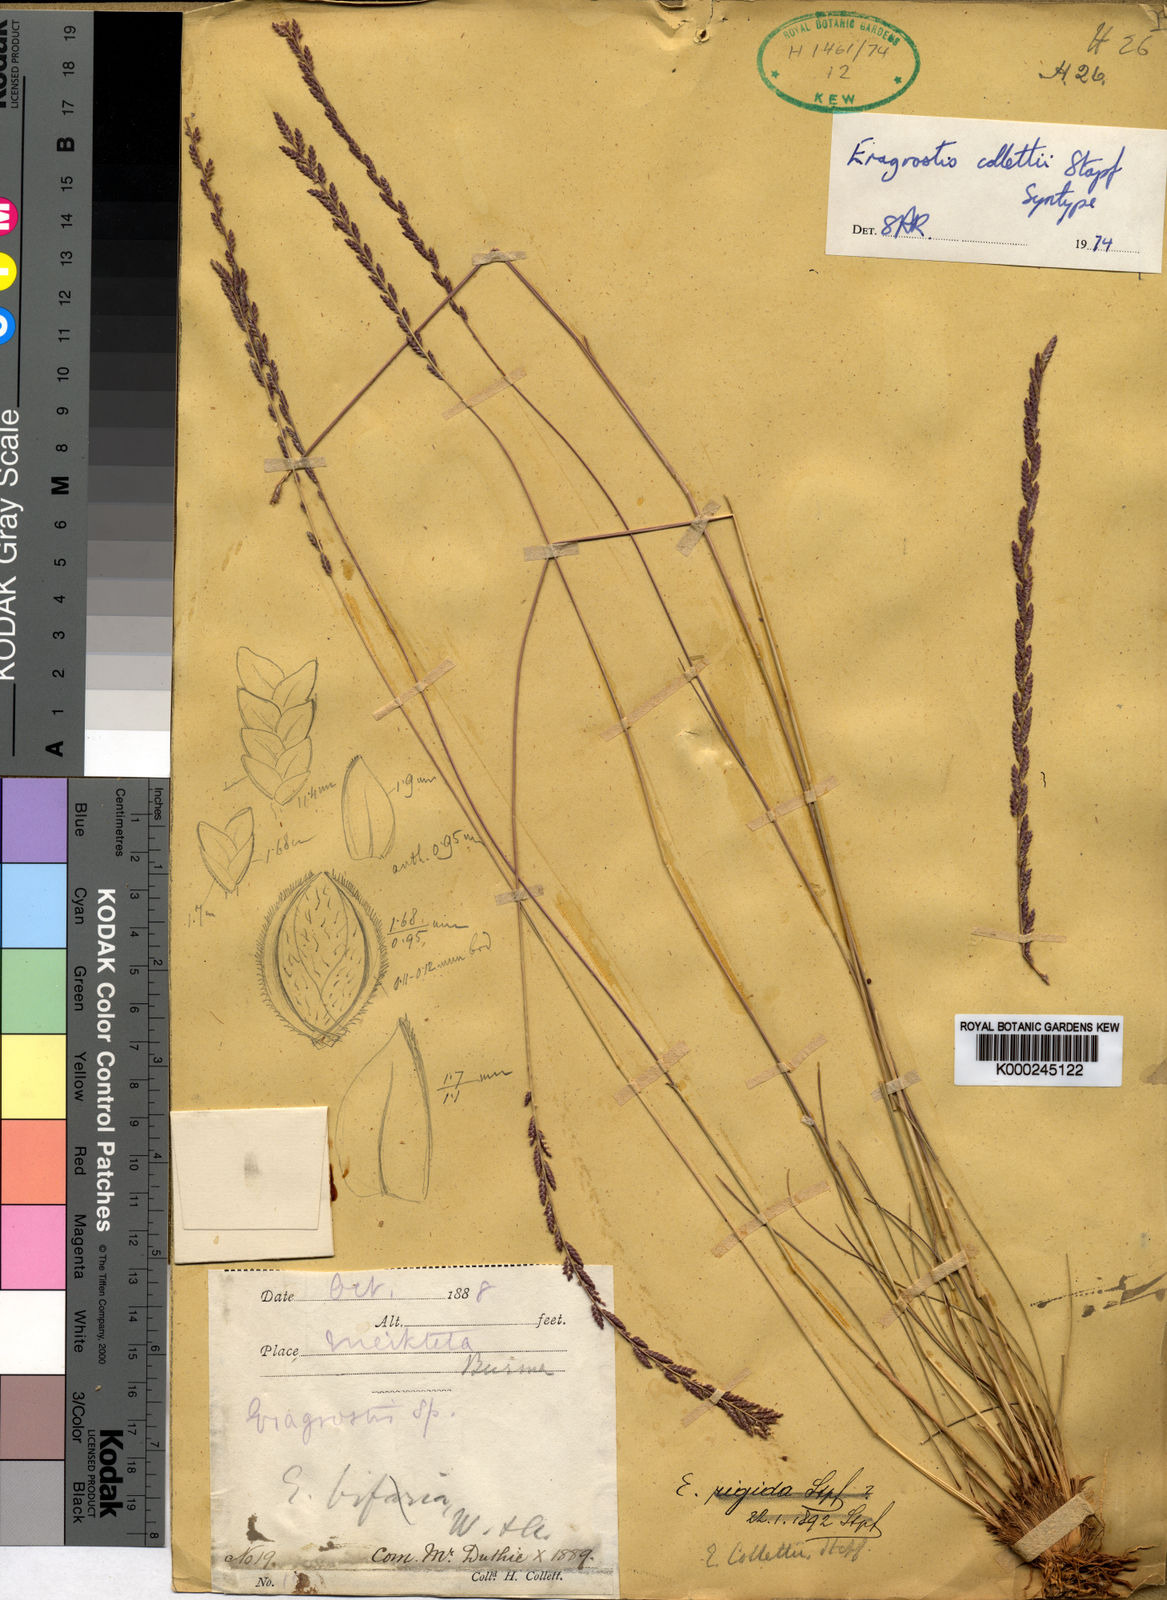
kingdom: Plantae
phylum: Tracheophyta
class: Liliopsida
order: Poales
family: Poaceae
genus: Eragrostiella
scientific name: Eragrostiella collettii
